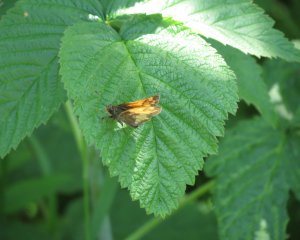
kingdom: Animalia
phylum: Arthropoda
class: Insecta
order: Lepidoptera
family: Hesperiidae
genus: Lon
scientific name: Lon hobomok
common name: Hobomok Skipper
